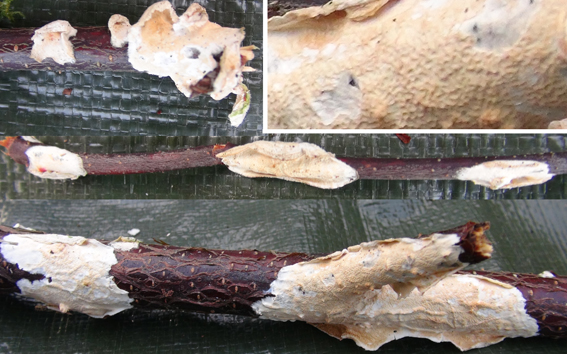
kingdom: Fungi
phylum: Basidiomycota
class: Agaricomycetes
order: Polyporales
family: Irpicaceae
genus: Byssomerulius
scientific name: Byssomerulius corium
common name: læder-åresvamp
